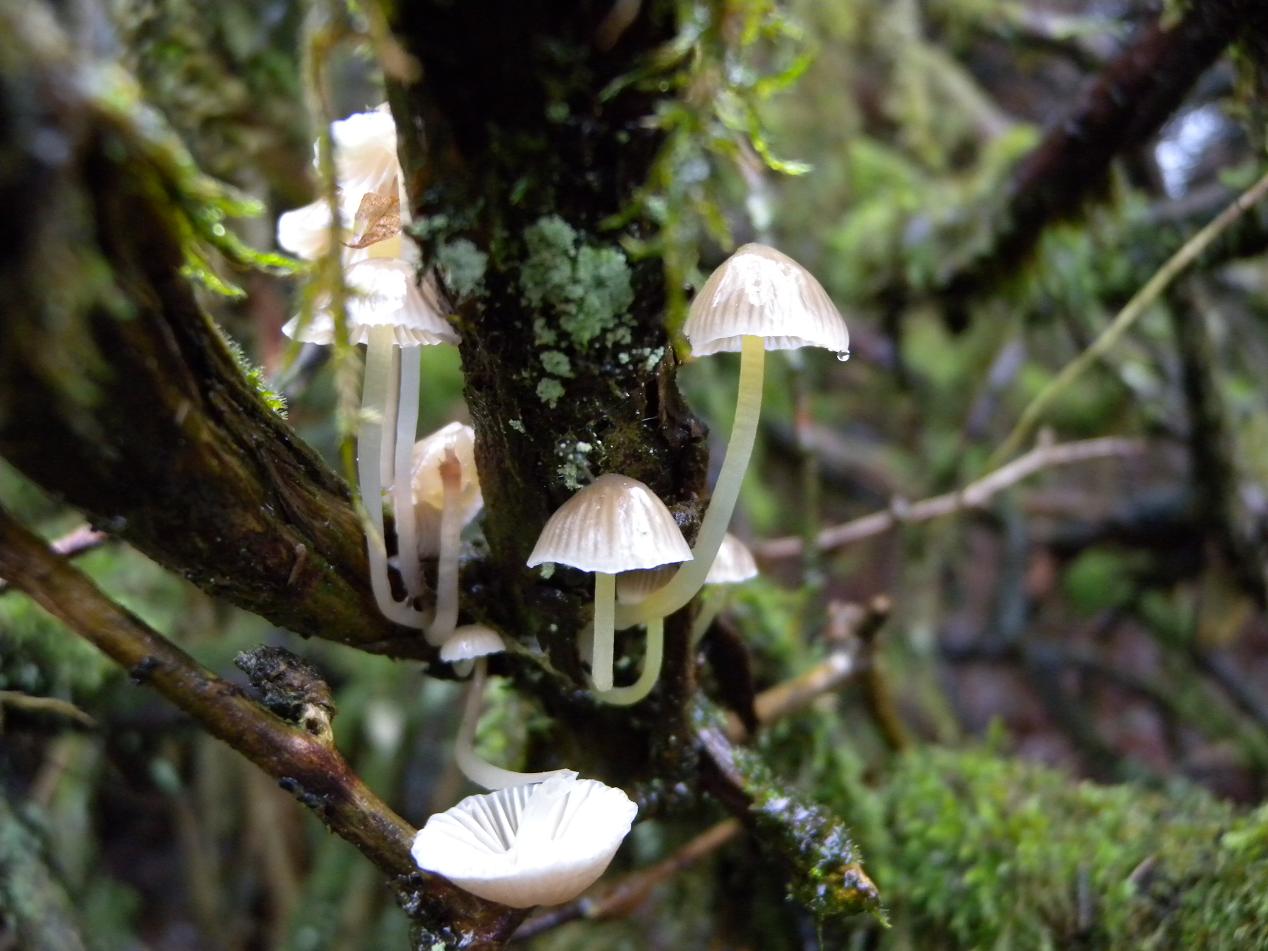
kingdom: Fungi
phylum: Basidiomycota
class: Agaricomycetes
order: Agaricales
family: Mycenaceae
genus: Mycena
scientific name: Mycena epipterygia
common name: gulstokket huesvamp
